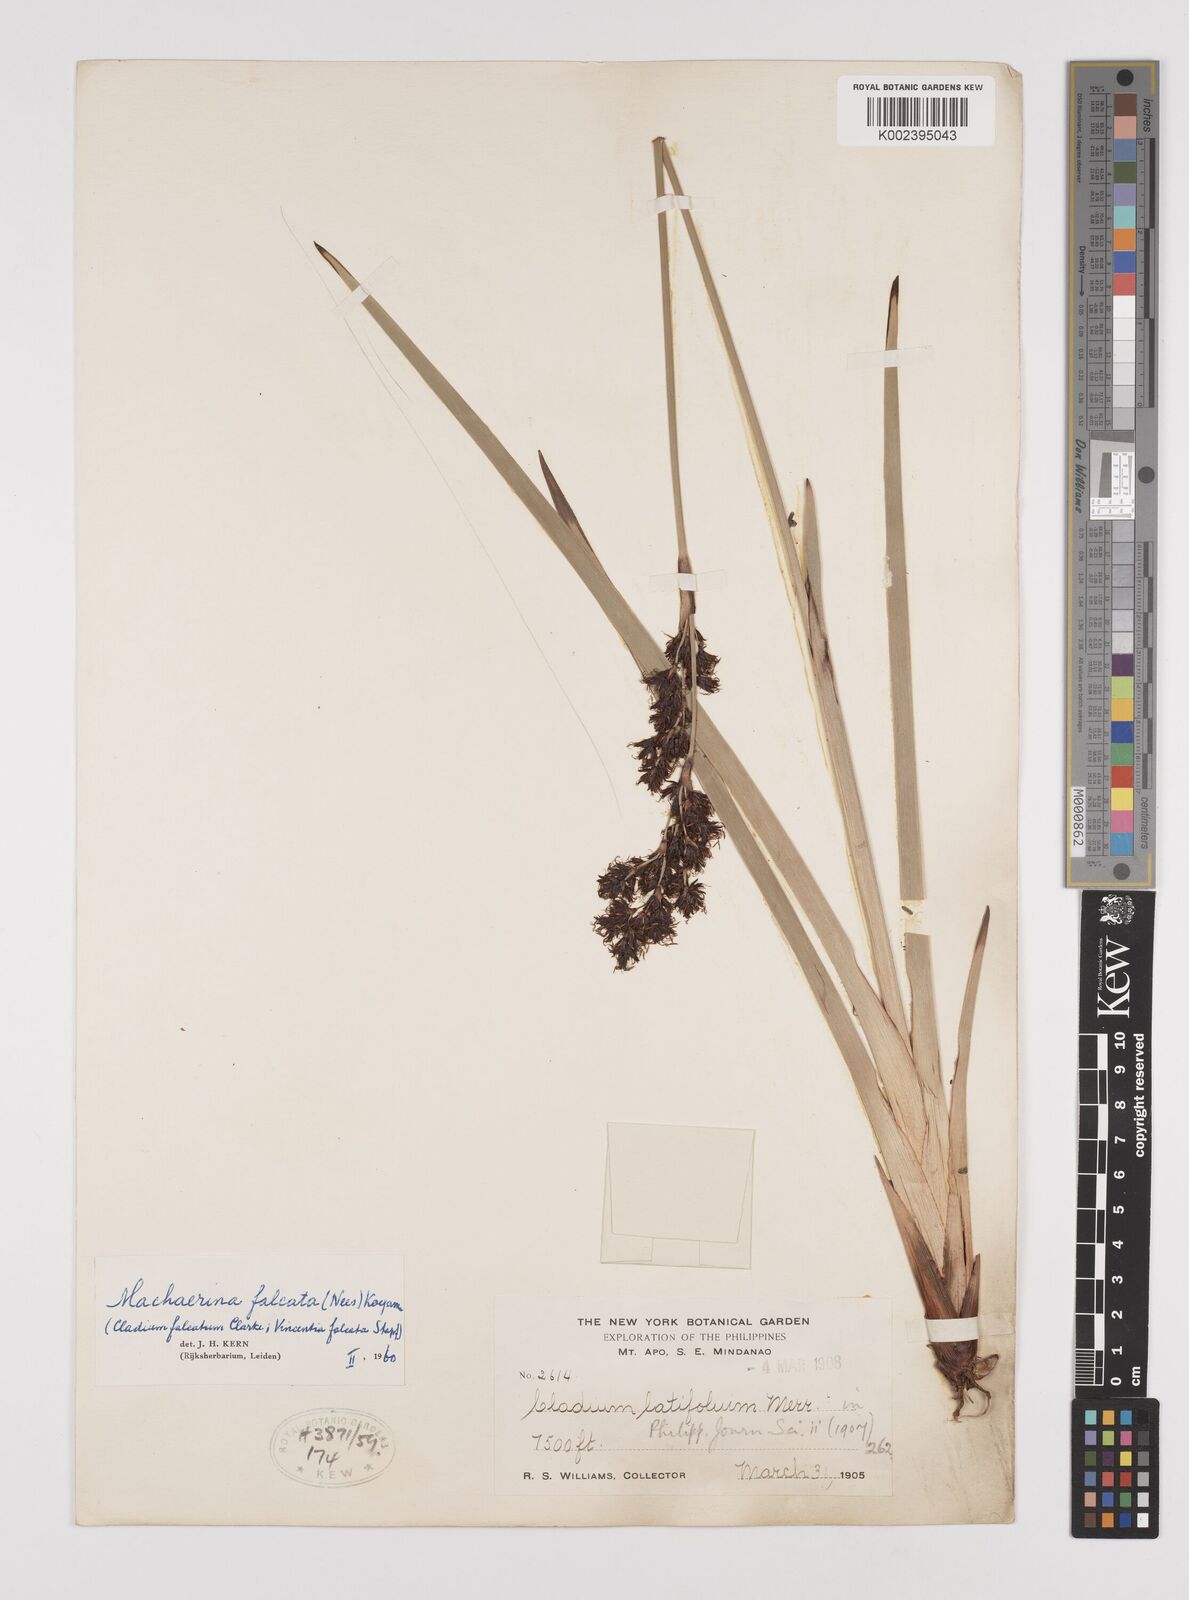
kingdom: Plantae
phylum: Tracheophyta
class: Liliopsida
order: Poales
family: Cyperaceae
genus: Machaerina
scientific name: Machaerina falcata
